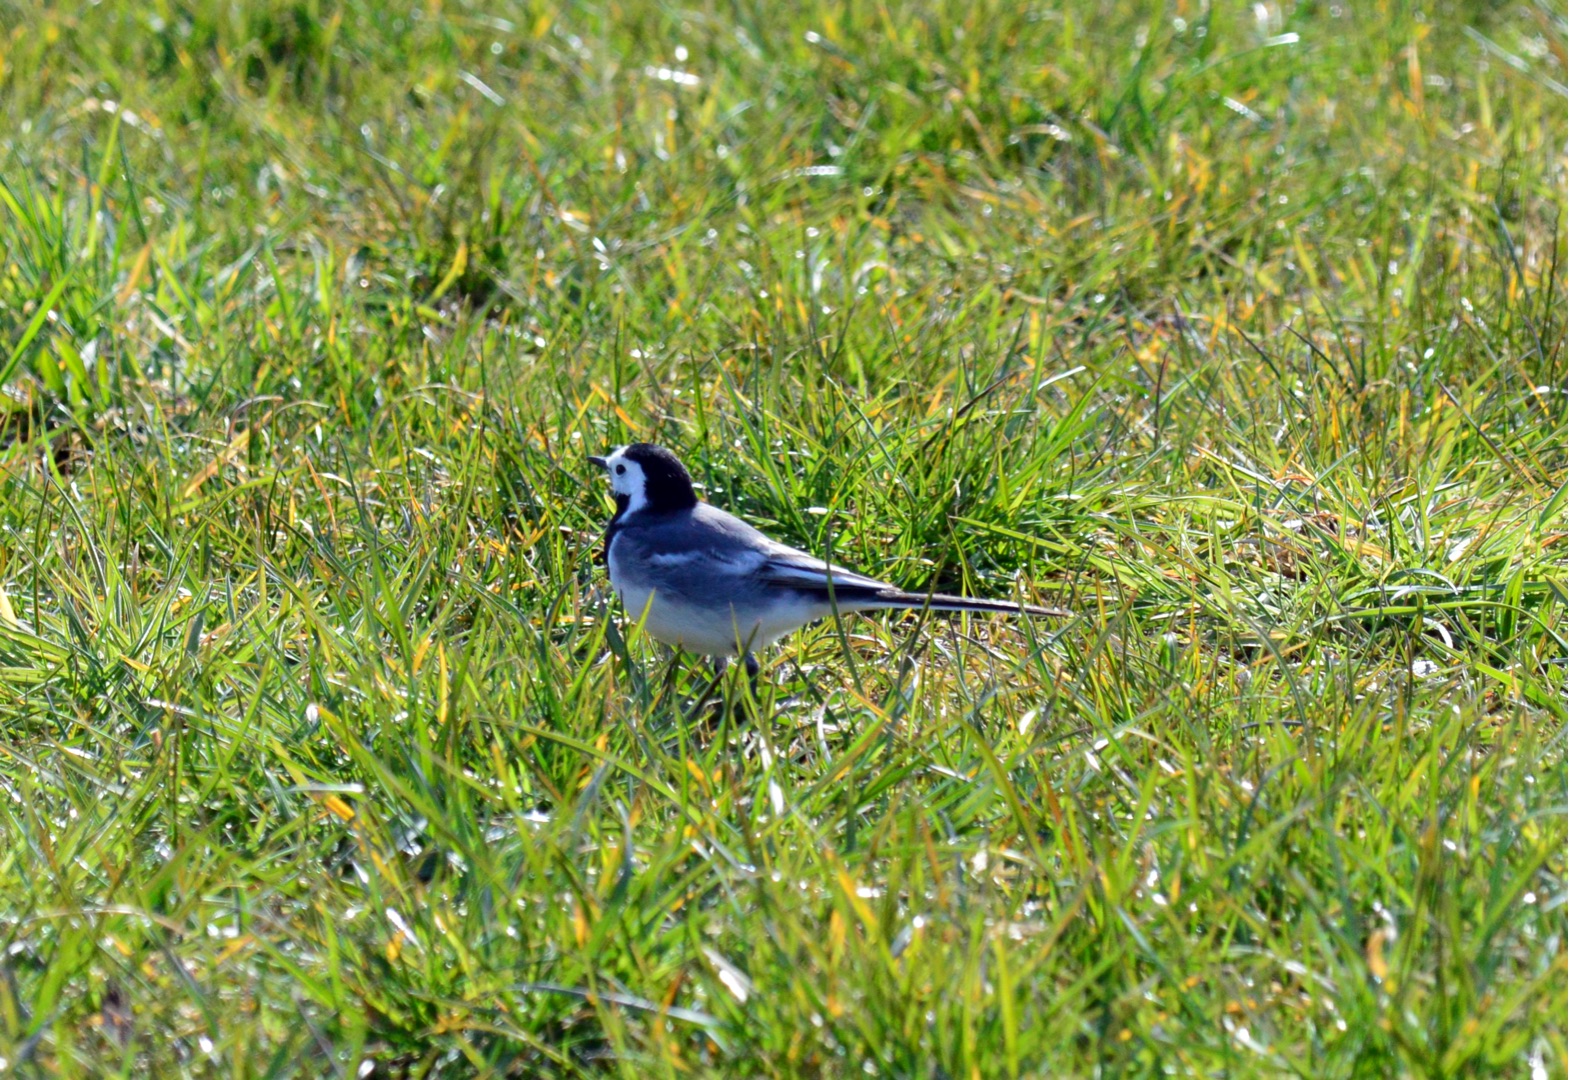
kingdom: Animalia
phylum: Chordata
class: Aves
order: Passeriformes
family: Motacillidae
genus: Motacilla
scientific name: Motacilla alba
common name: Hvid vipstjert
